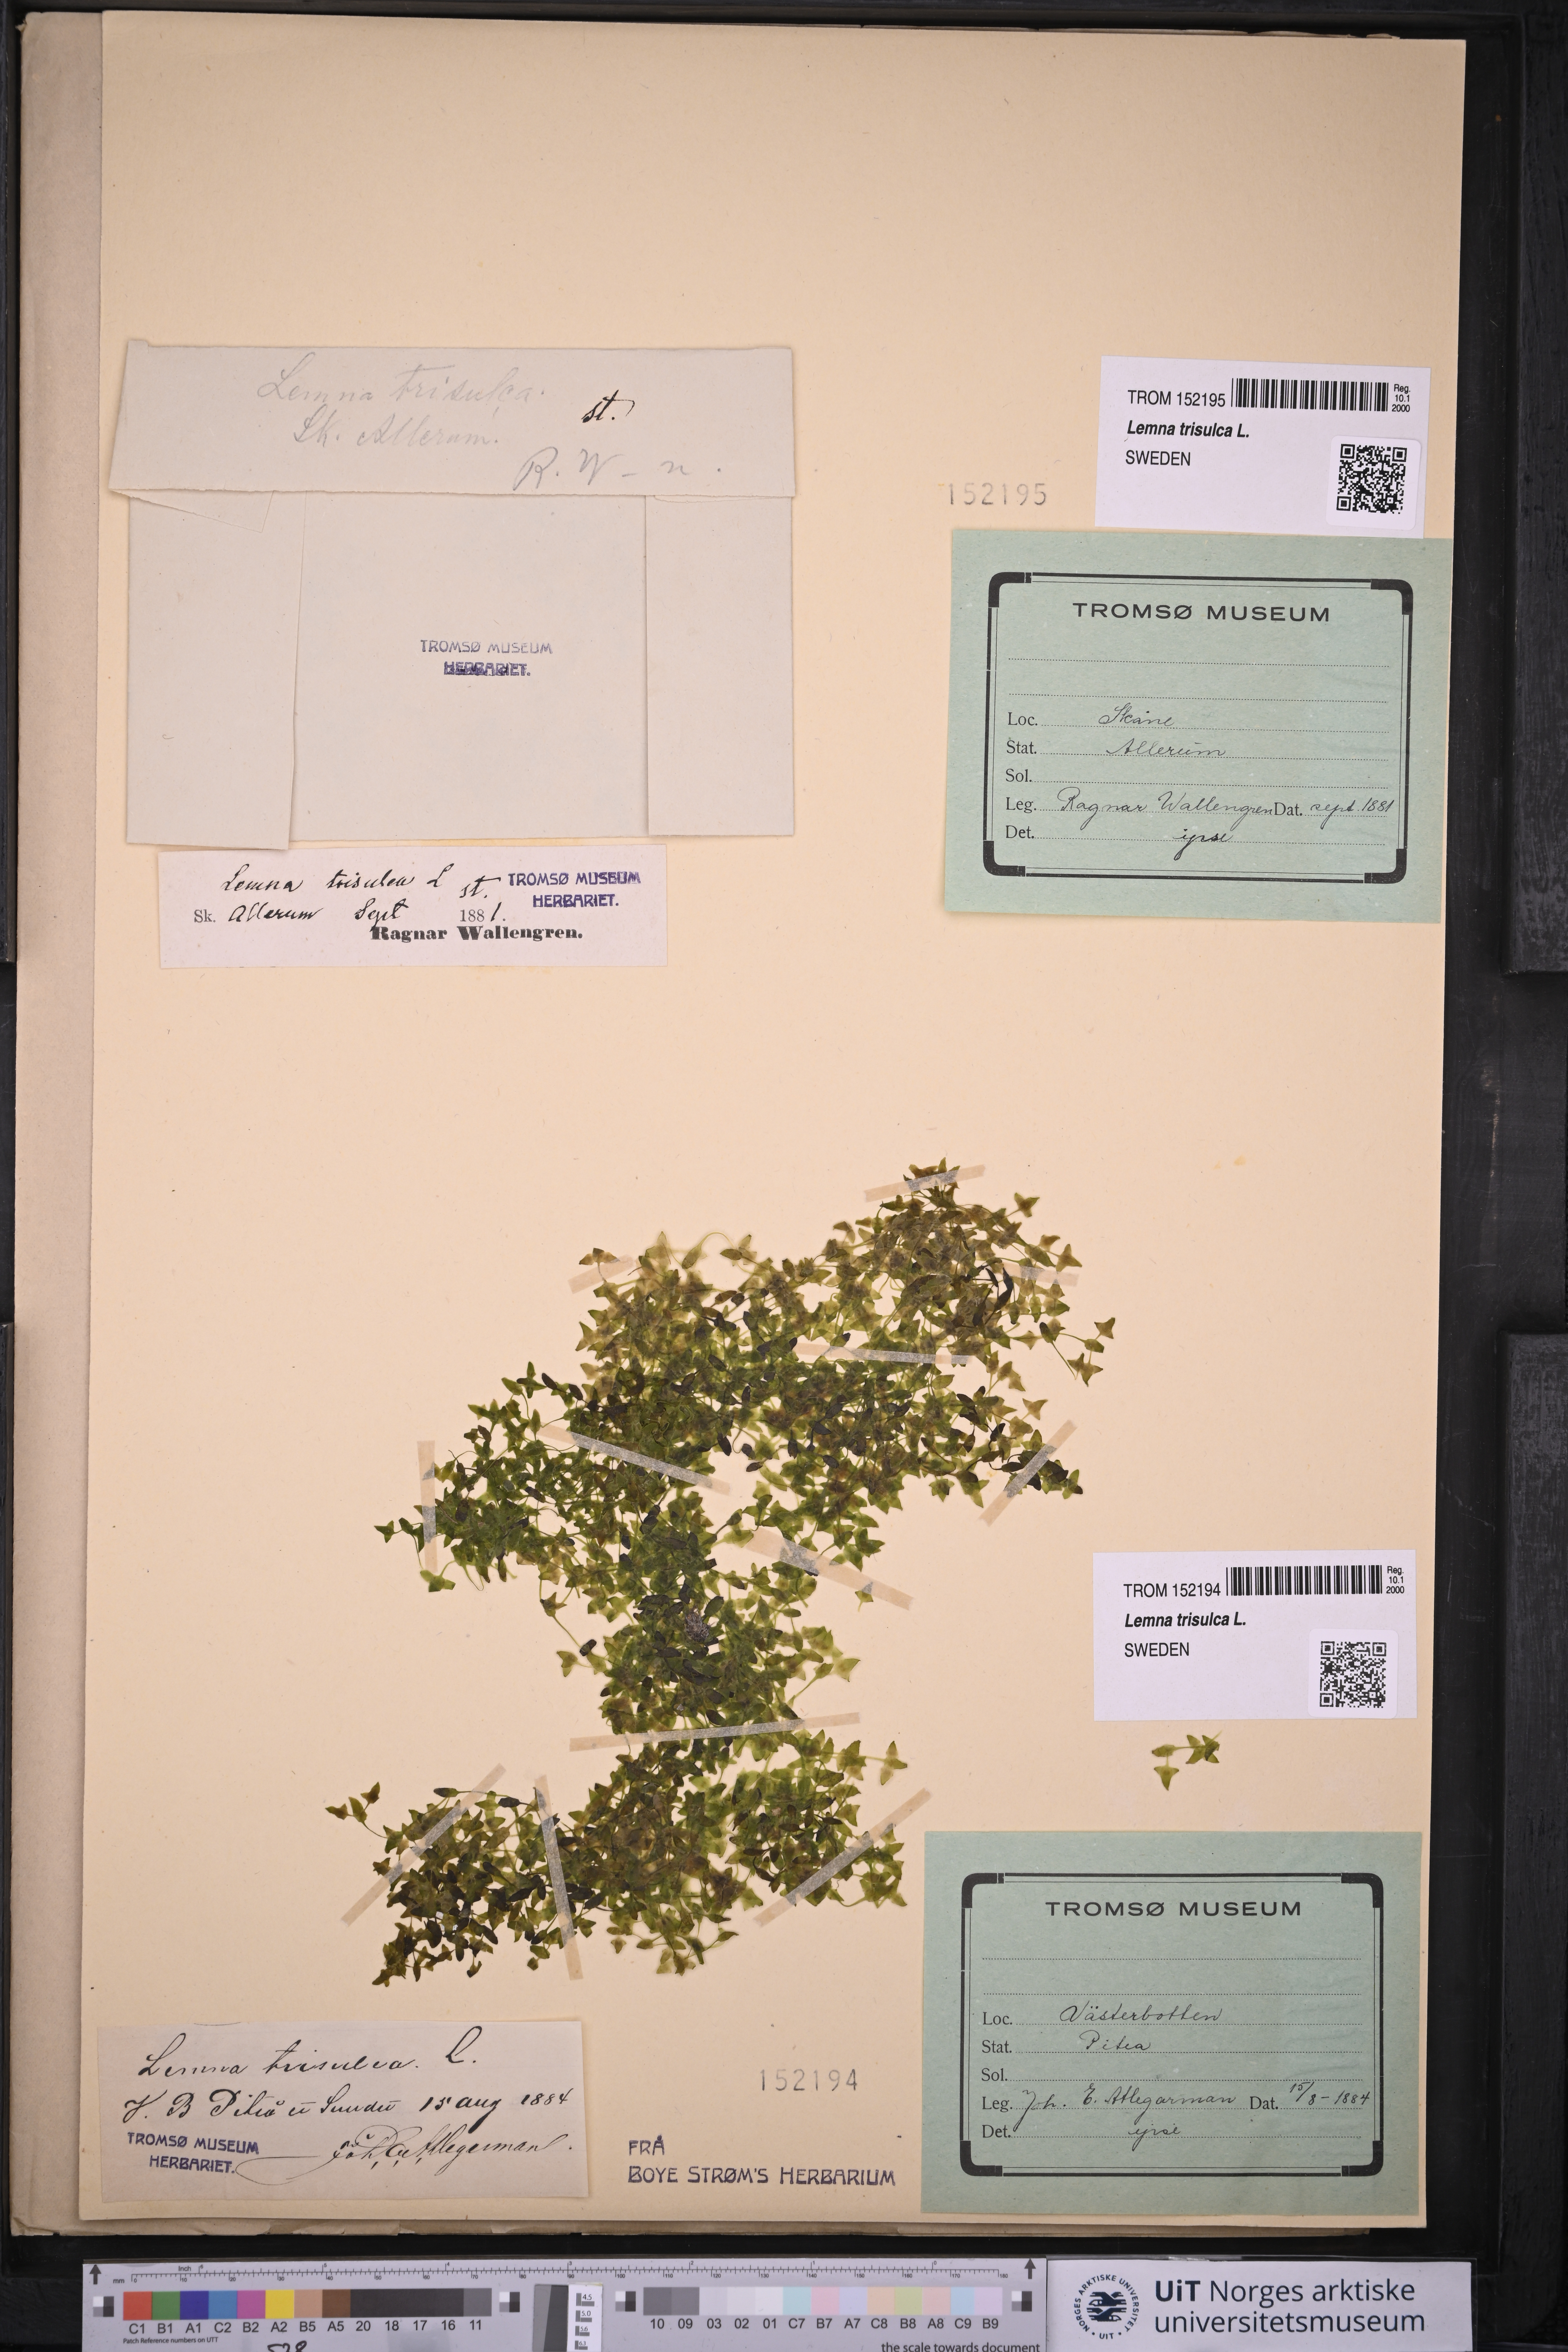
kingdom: Plantae
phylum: Tracheophyta
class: Liliopsida
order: Alismatales
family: Araceae
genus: Lemna
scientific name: Lemna trisulca
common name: Ivy-leaved duckweed
